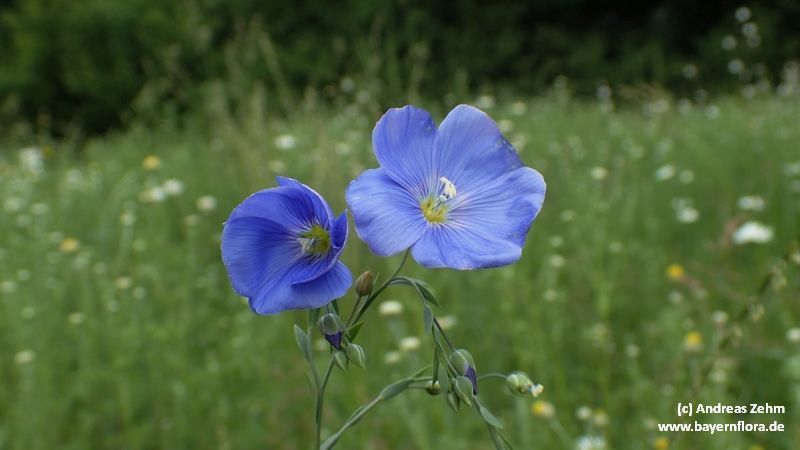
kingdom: Plantae
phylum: Tracheophyta
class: Magnoliopsida
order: Malpighiales
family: Linaceae
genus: Linum
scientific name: Linum usitatissimum
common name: Flax
